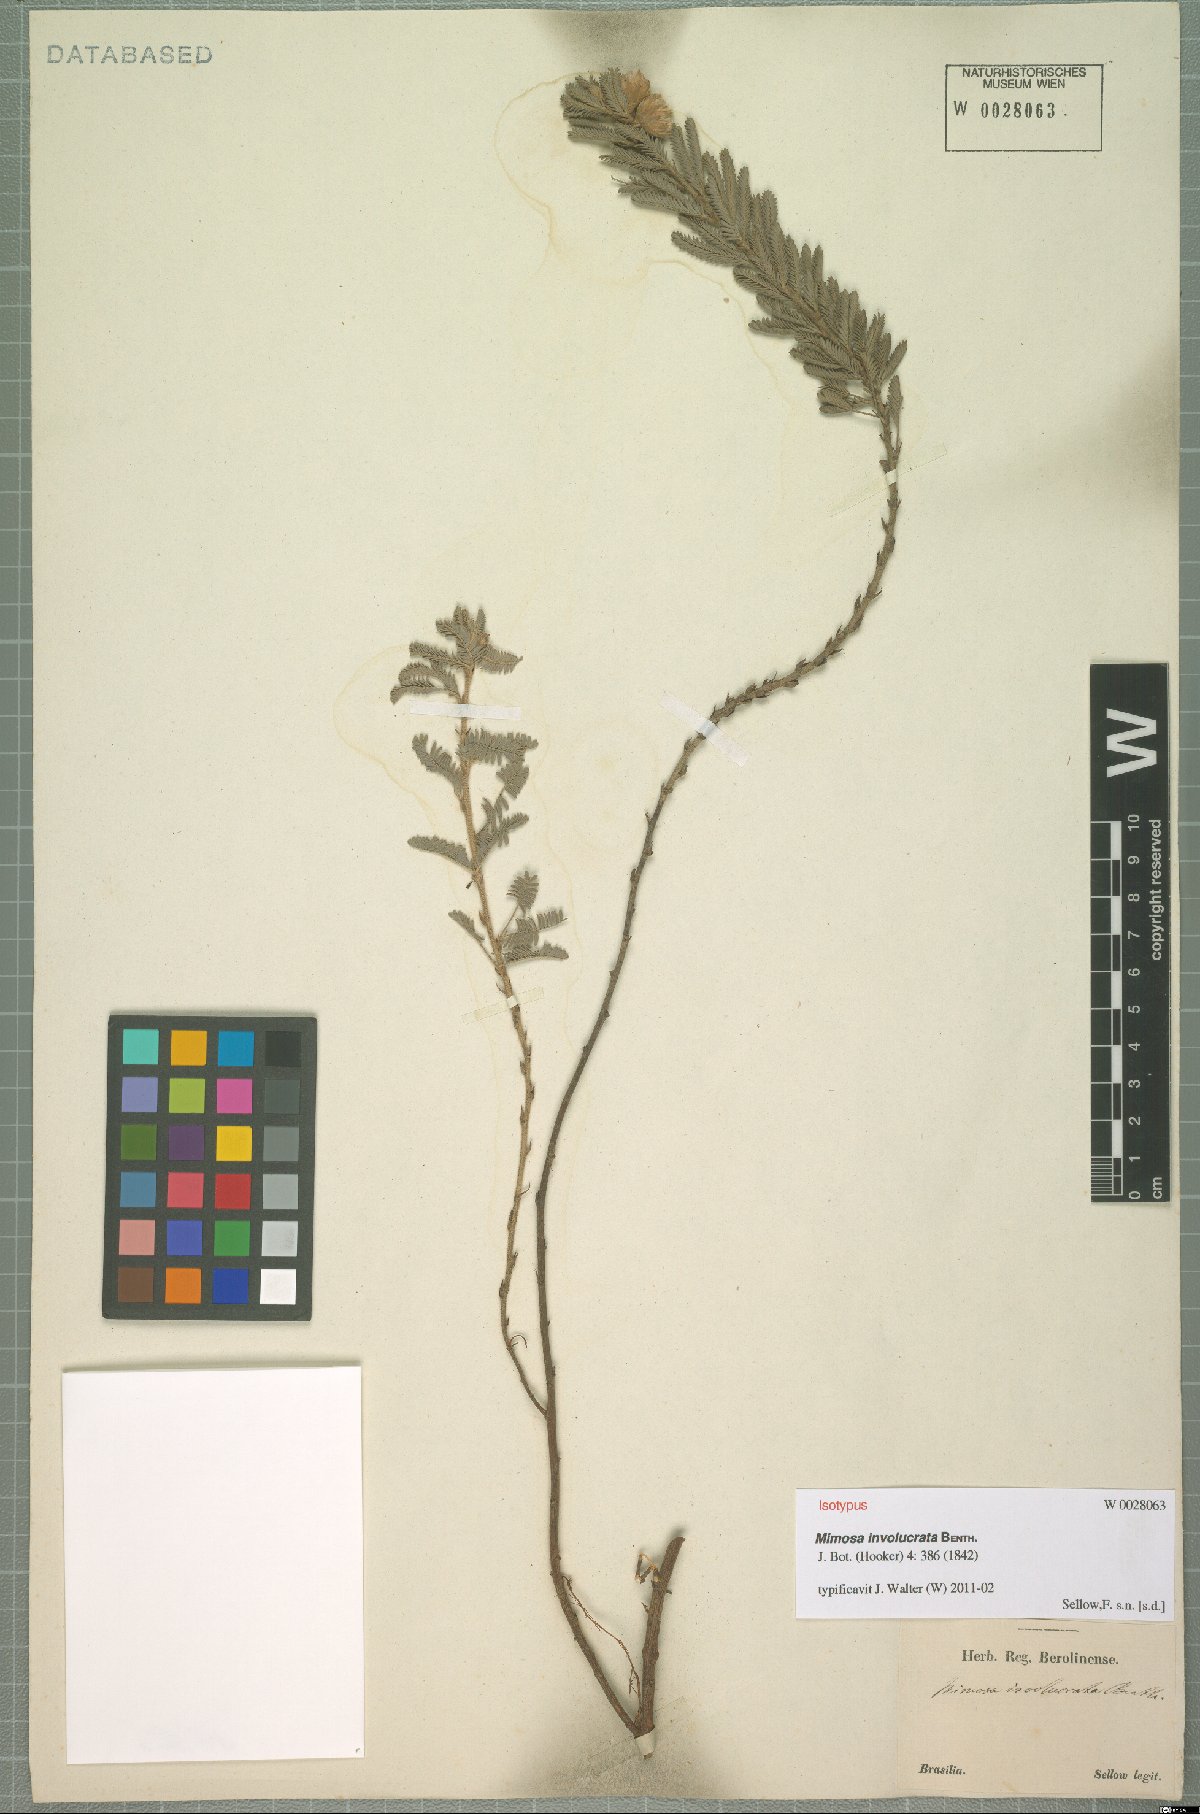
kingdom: Plantae
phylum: Tracheophyta
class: Magnoliopsida
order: Fabales
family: Fabaceae
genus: Mimosa
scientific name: Mimosa involucrata
